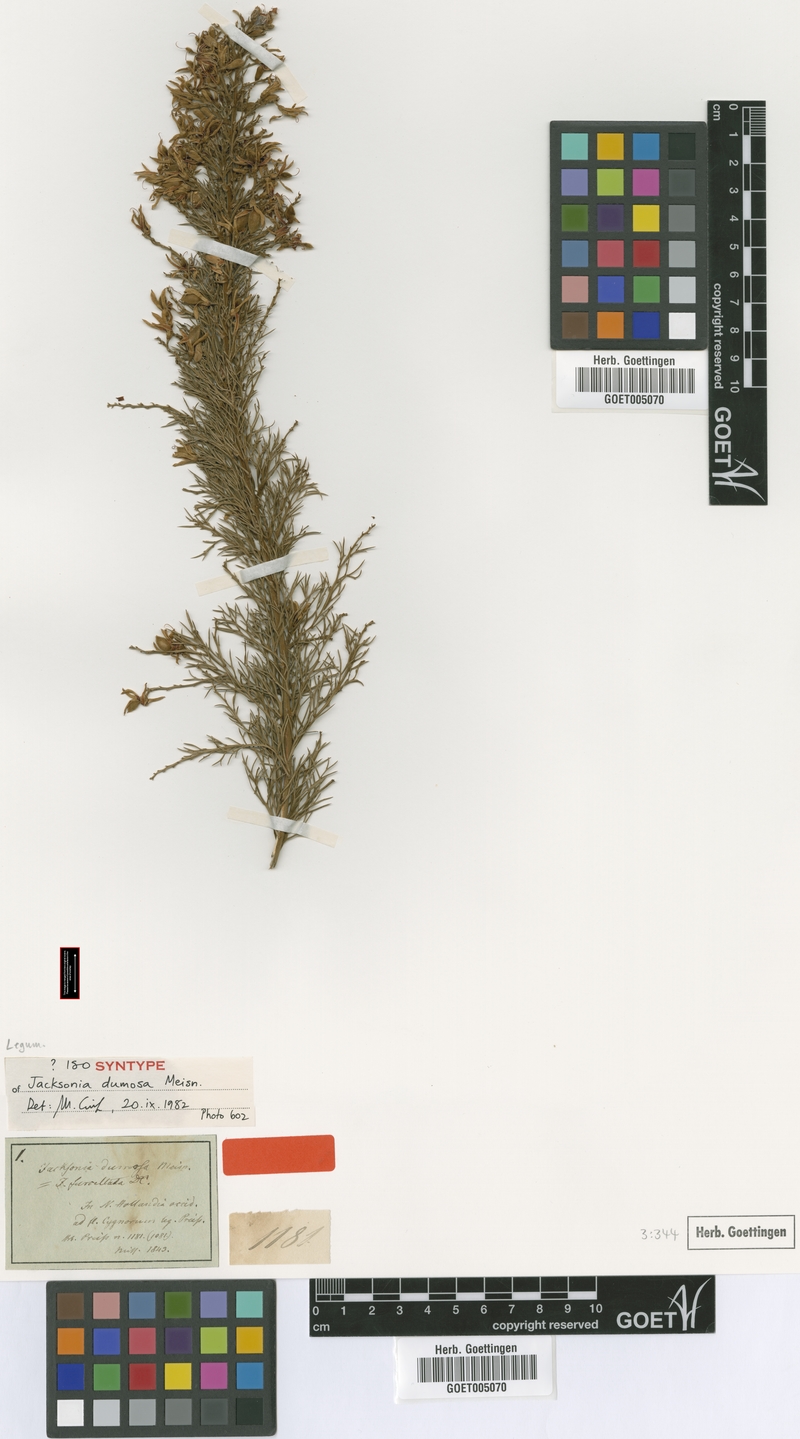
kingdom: Plantae
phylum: Tracheophyta
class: Magnoliopsida
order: Fabales
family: Fabaceae
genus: Jacksonia
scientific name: Jacksonia furcellata
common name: Grey stinkwood
